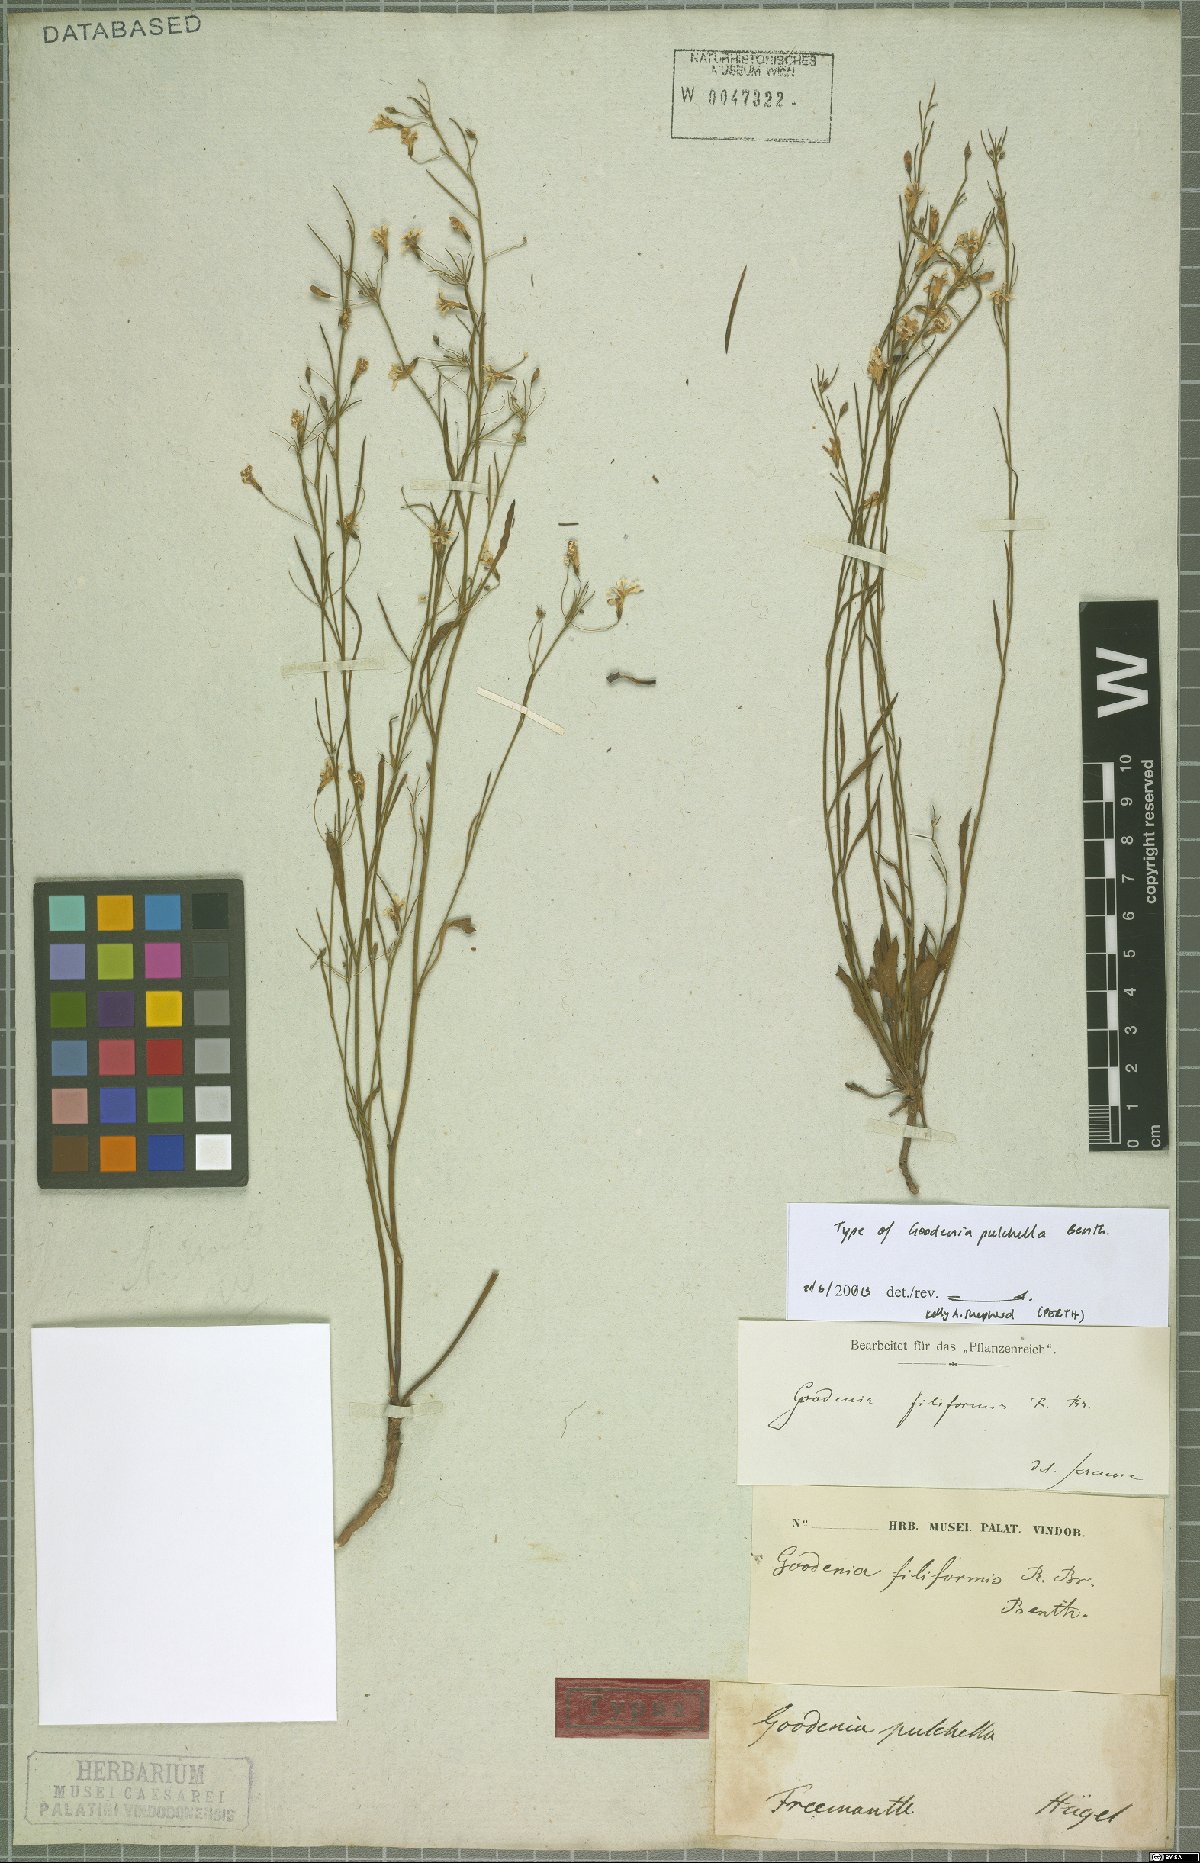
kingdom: Plantae
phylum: Tracheophyta
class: Magnoliopsida
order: Asterales
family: Goodeniaceae
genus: Goodenia
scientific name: Goodenia pulchella
